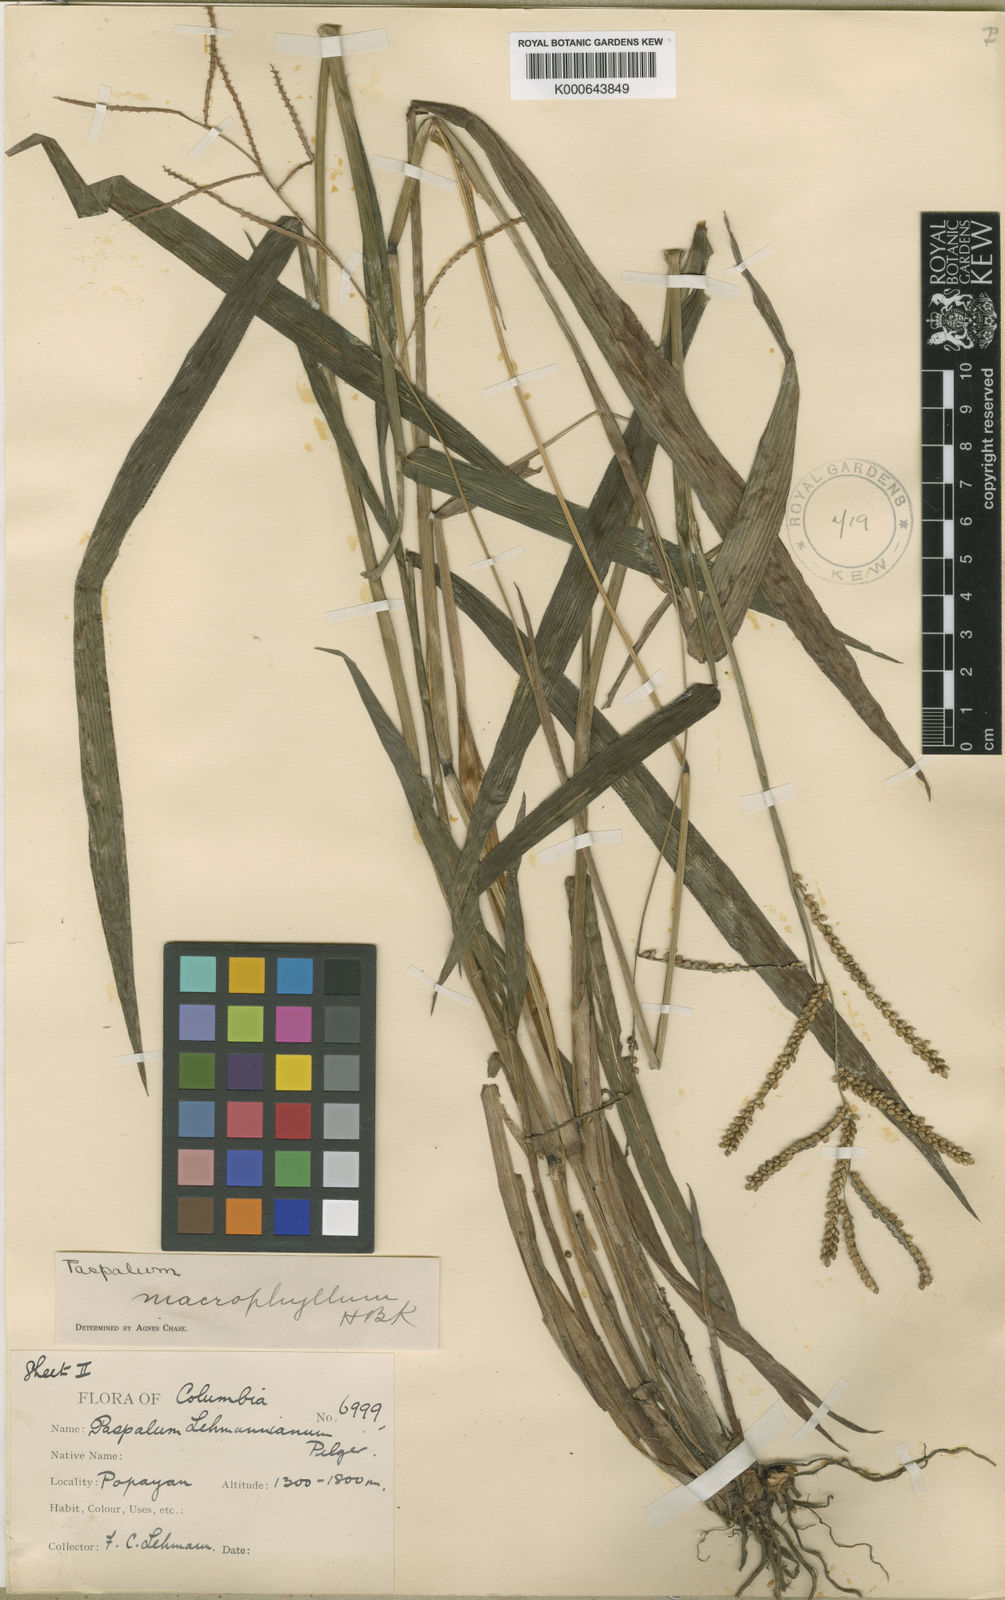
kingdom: Plantae
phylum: Tracheophyta
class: Liliopsida
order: Poales
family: Poaceae
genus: Paspalum
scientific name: Paspalum
